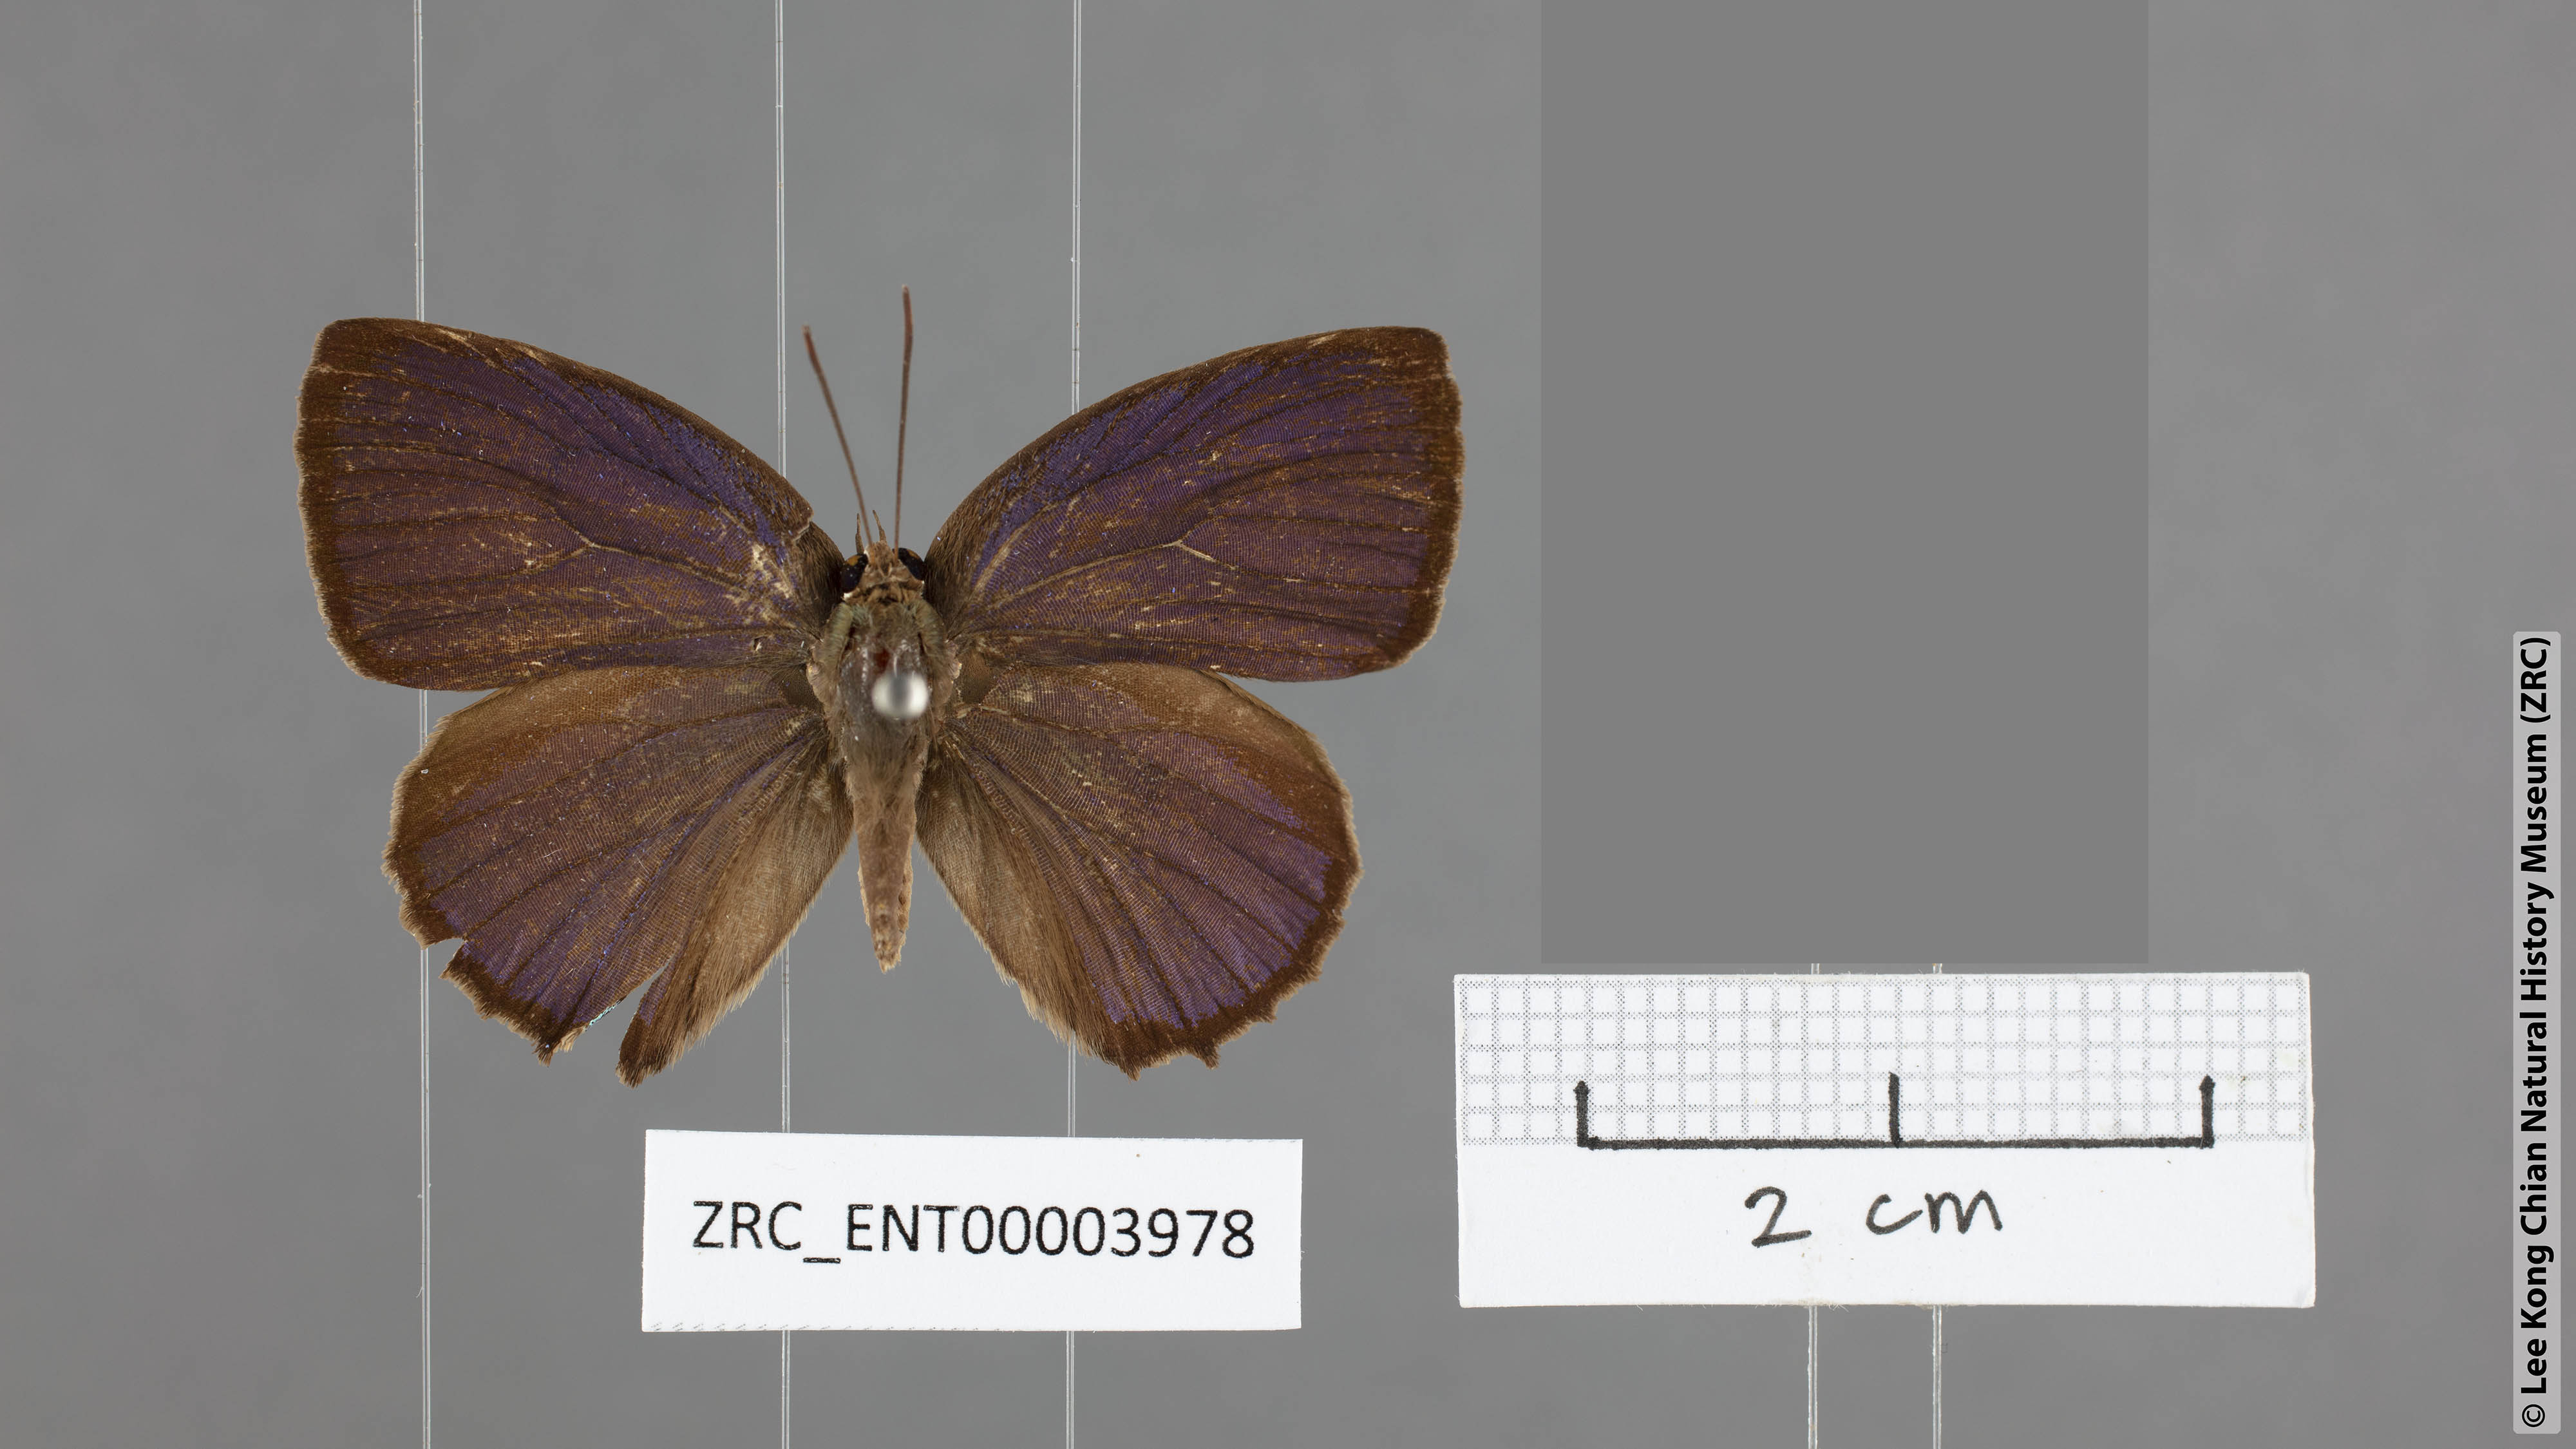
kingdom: Animalia
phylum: Arthropoda
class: Insecta
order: Lepidoptera
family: Lycaenidae
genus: Arhopala
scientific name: Arhopala labuana
